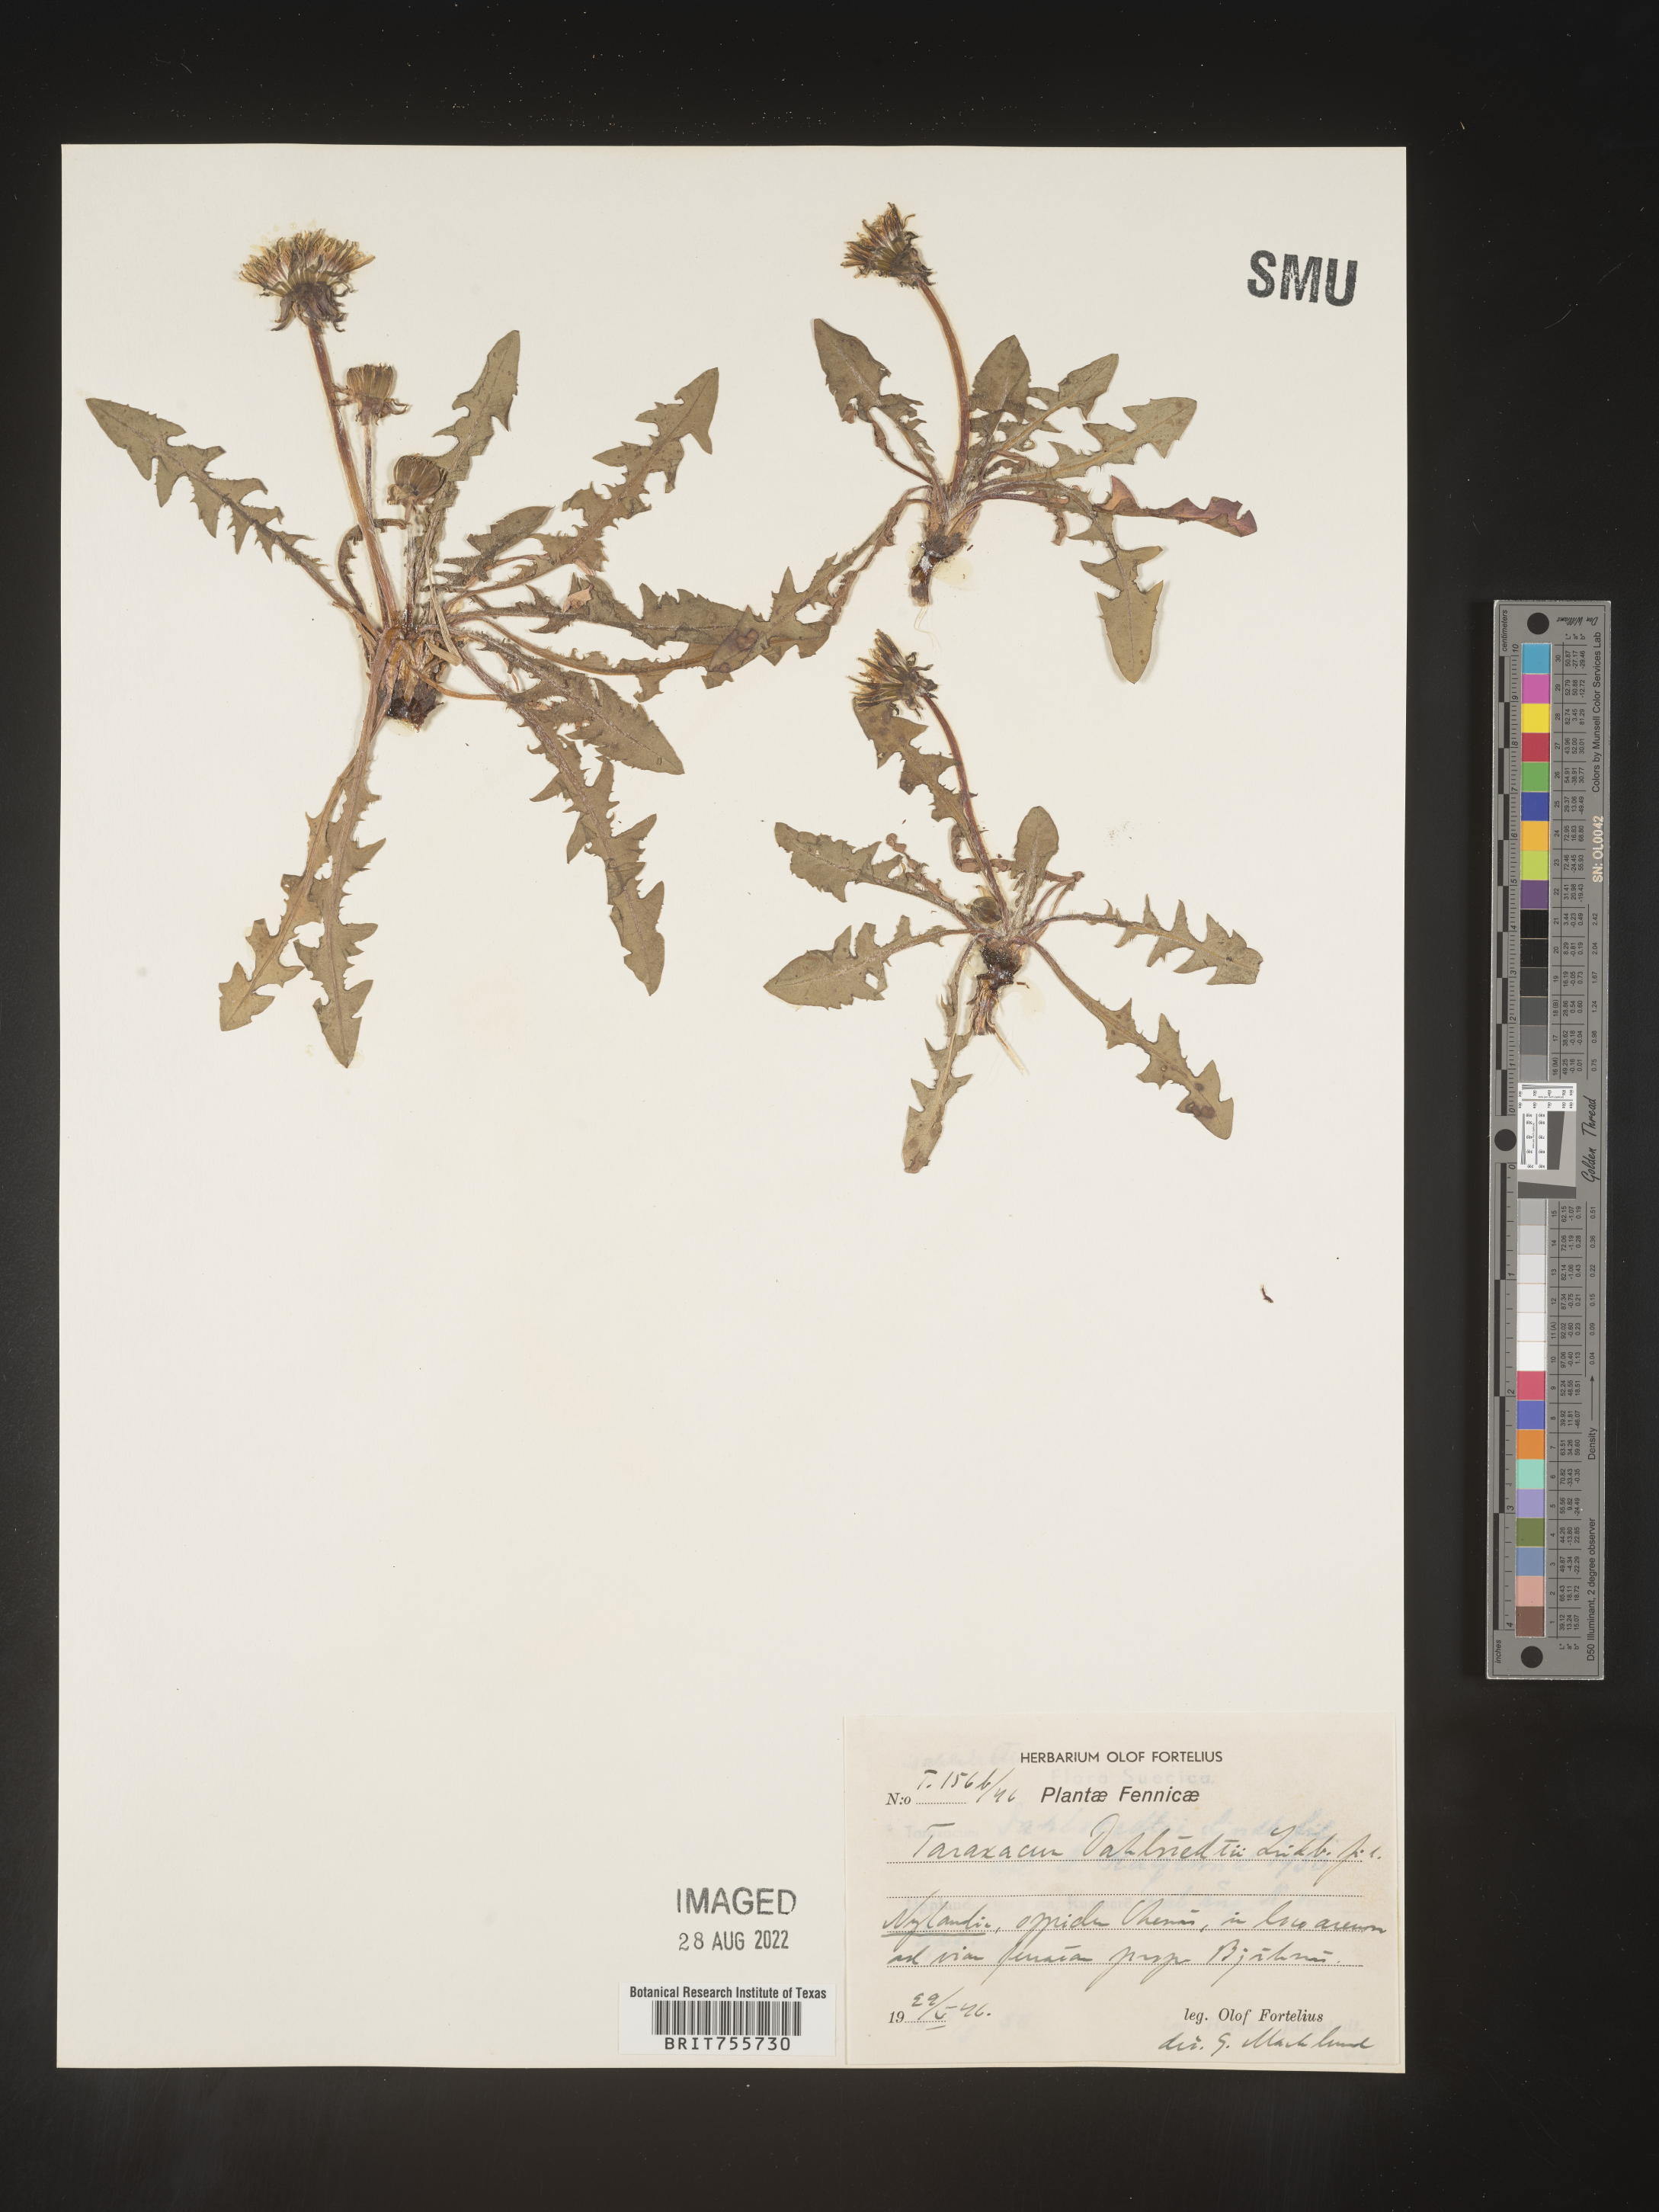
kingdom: Plantae
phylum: Tracheophyta
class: Magnoliopsida
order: Asterales
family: Asteraceae
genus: Taraxacum
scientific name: Taraxacum
